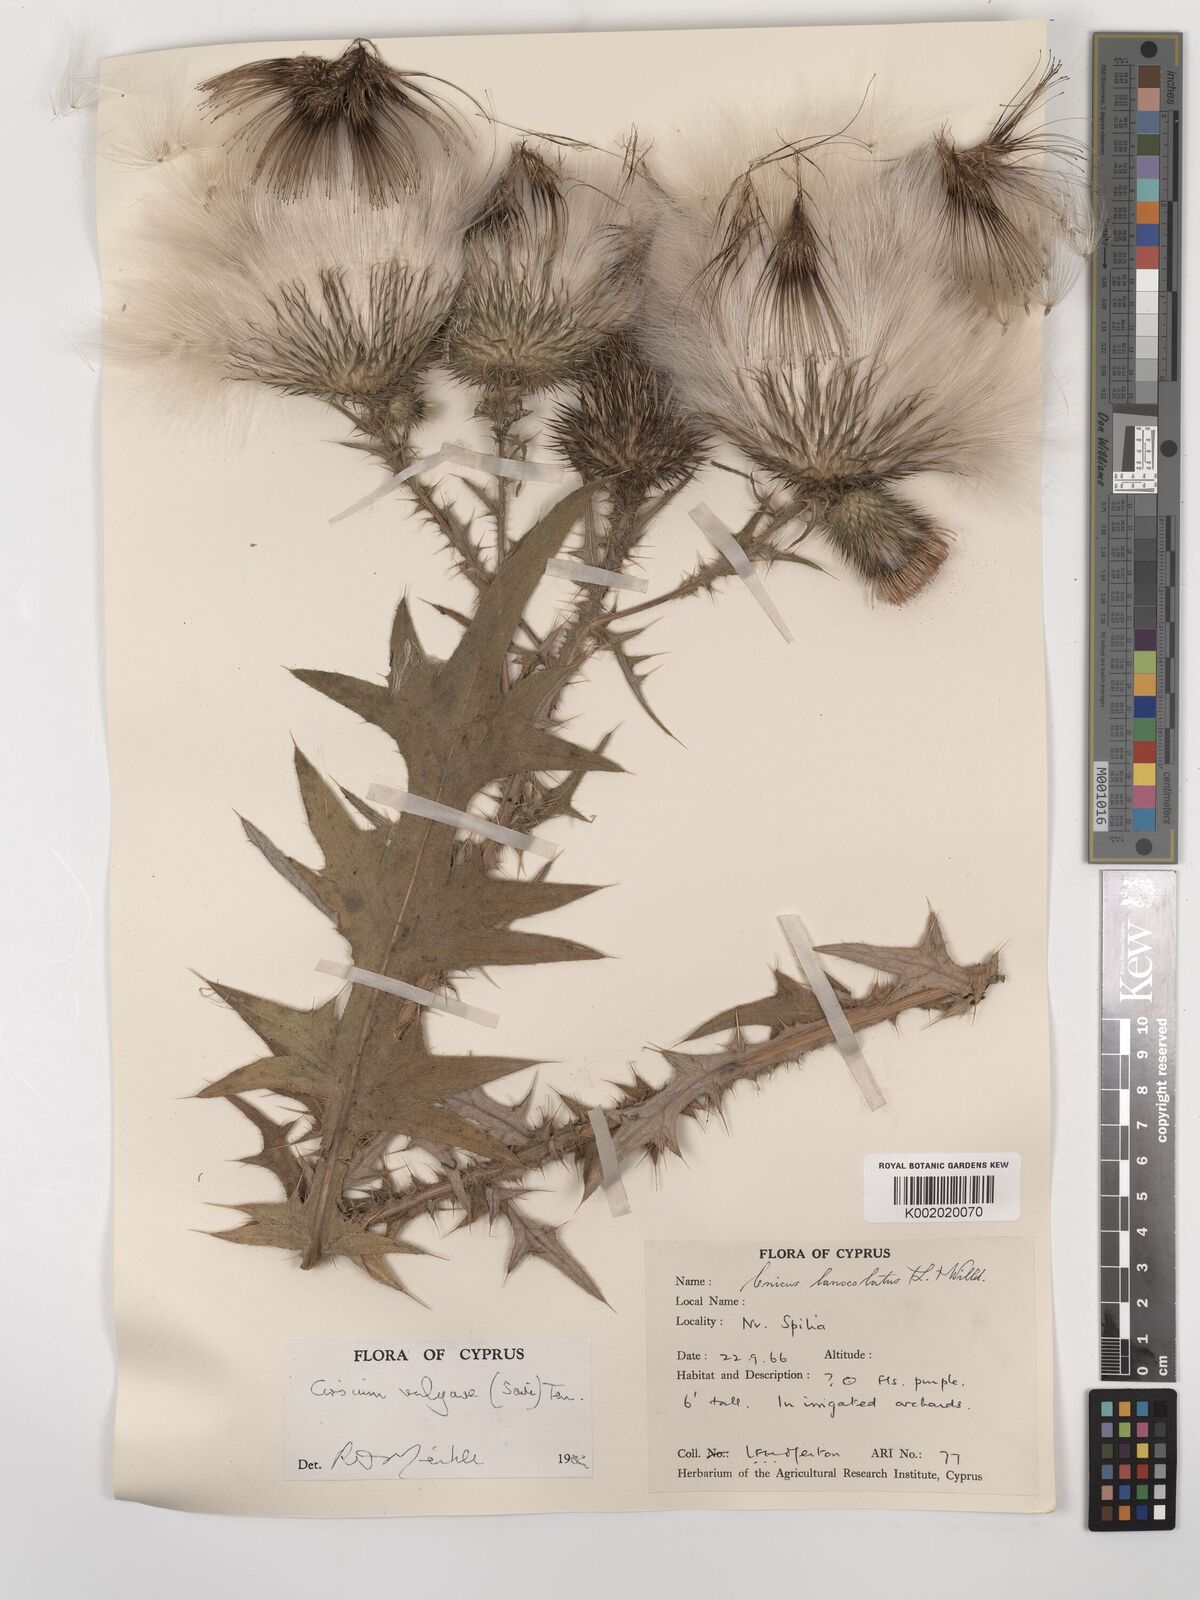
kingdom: Plantae
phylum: Tracheophyta
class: Magnoliopsida
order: Asterales
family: Asteraceae
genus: Cirsium
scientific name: Cirsium vulgare
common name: Bull thistle
